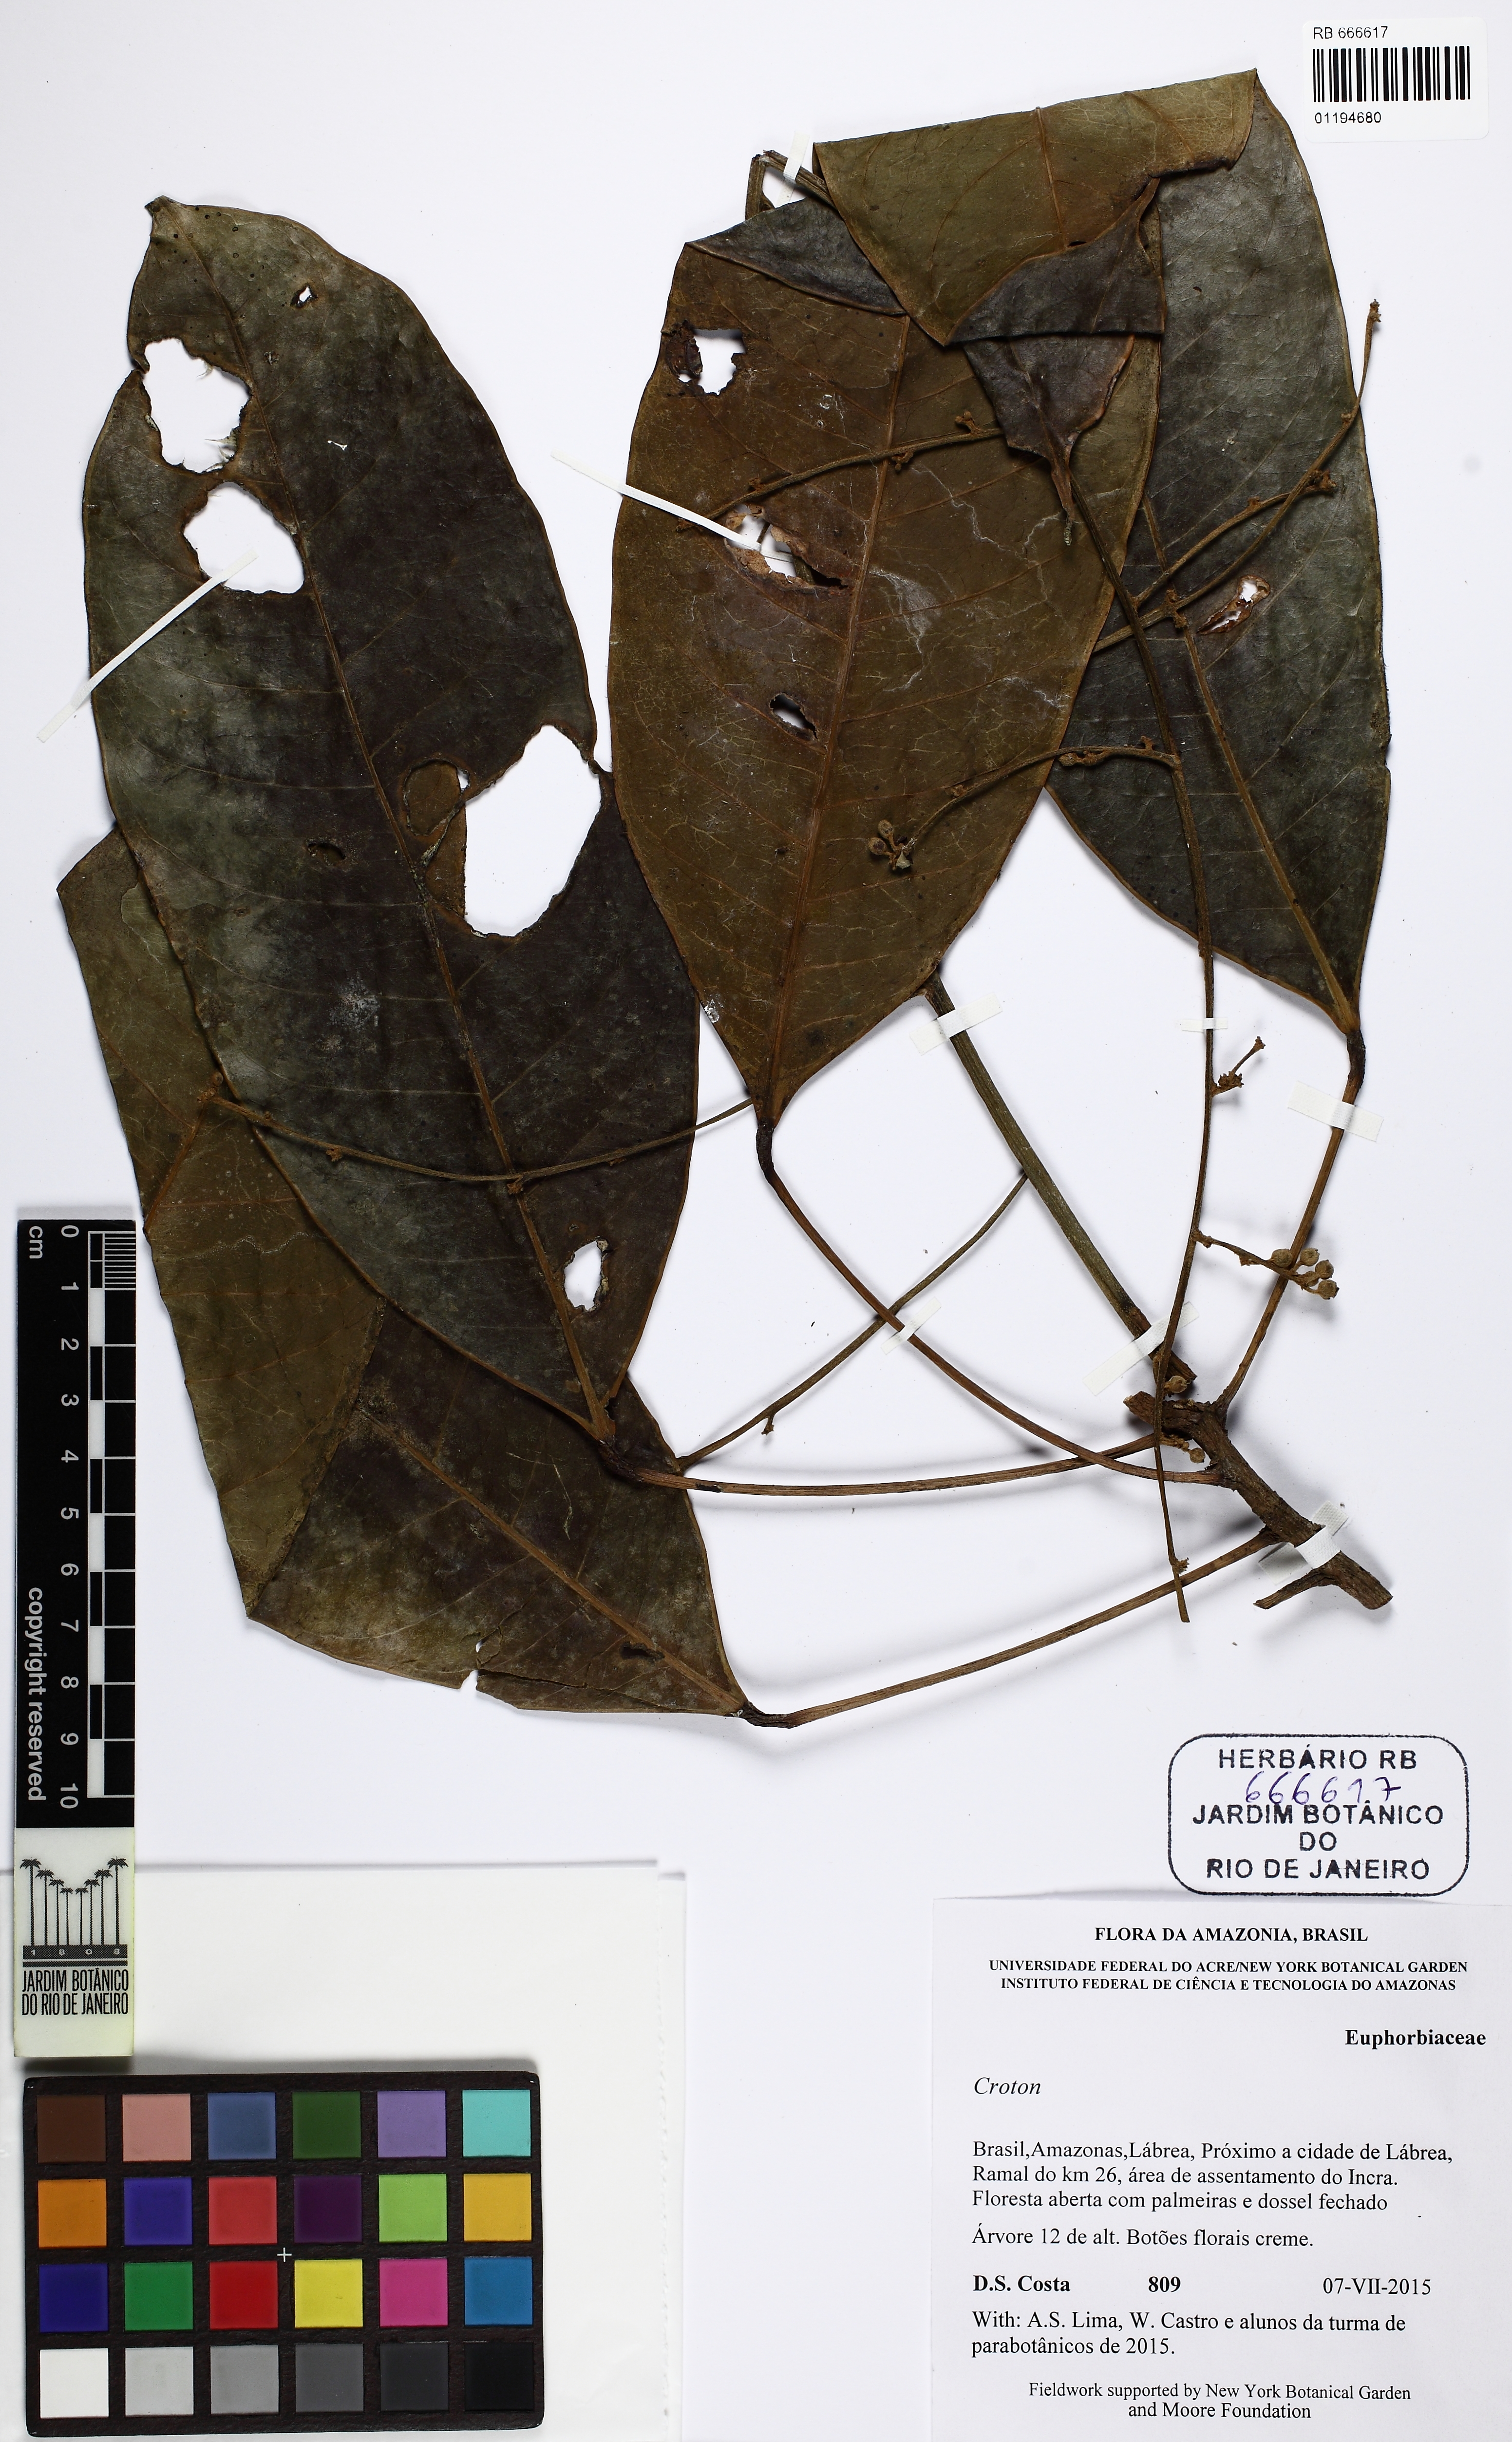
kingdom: Plantae
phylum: Tracheophyta
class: Magnoliopsida
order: Malpighiales
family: Euphorbiaceae
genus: Croton
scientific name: Croton
